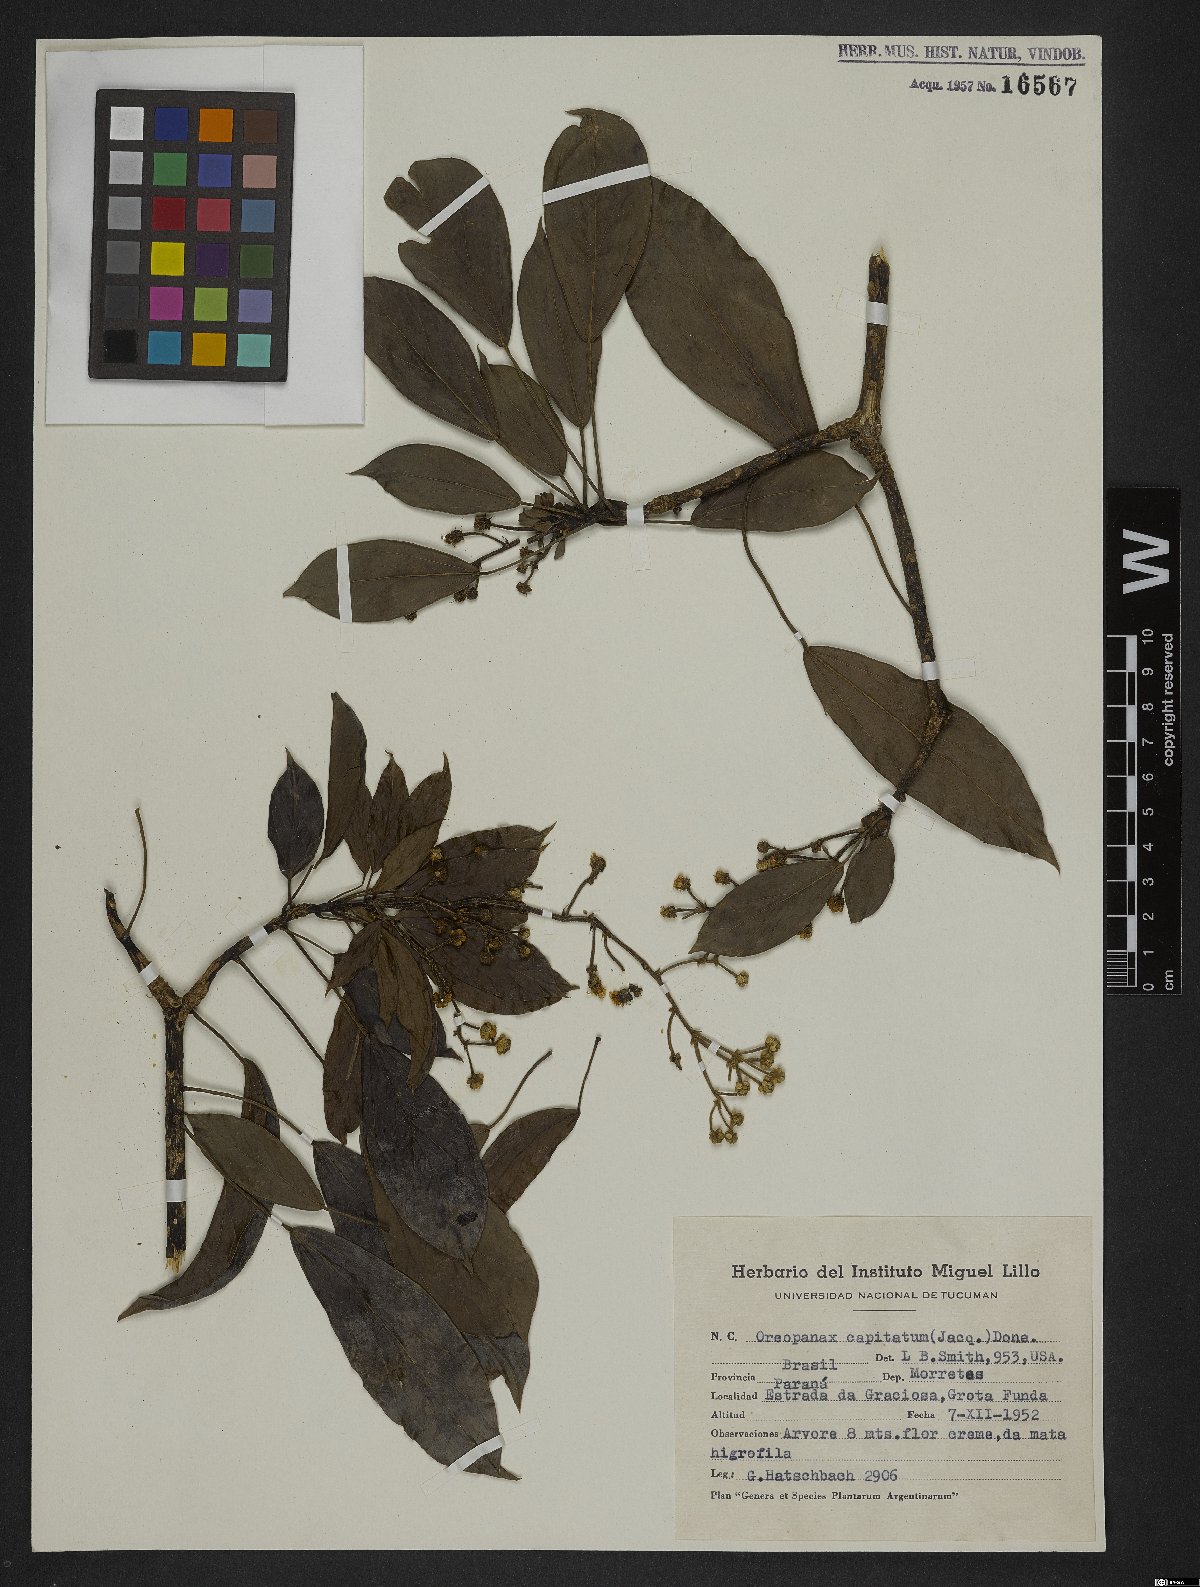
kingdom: Plantae
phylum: Tracheophyta
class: Magnoliopsida
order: Apiales
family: Araliaceae
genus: Oreopanax
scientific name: Oreopanax capitatus
